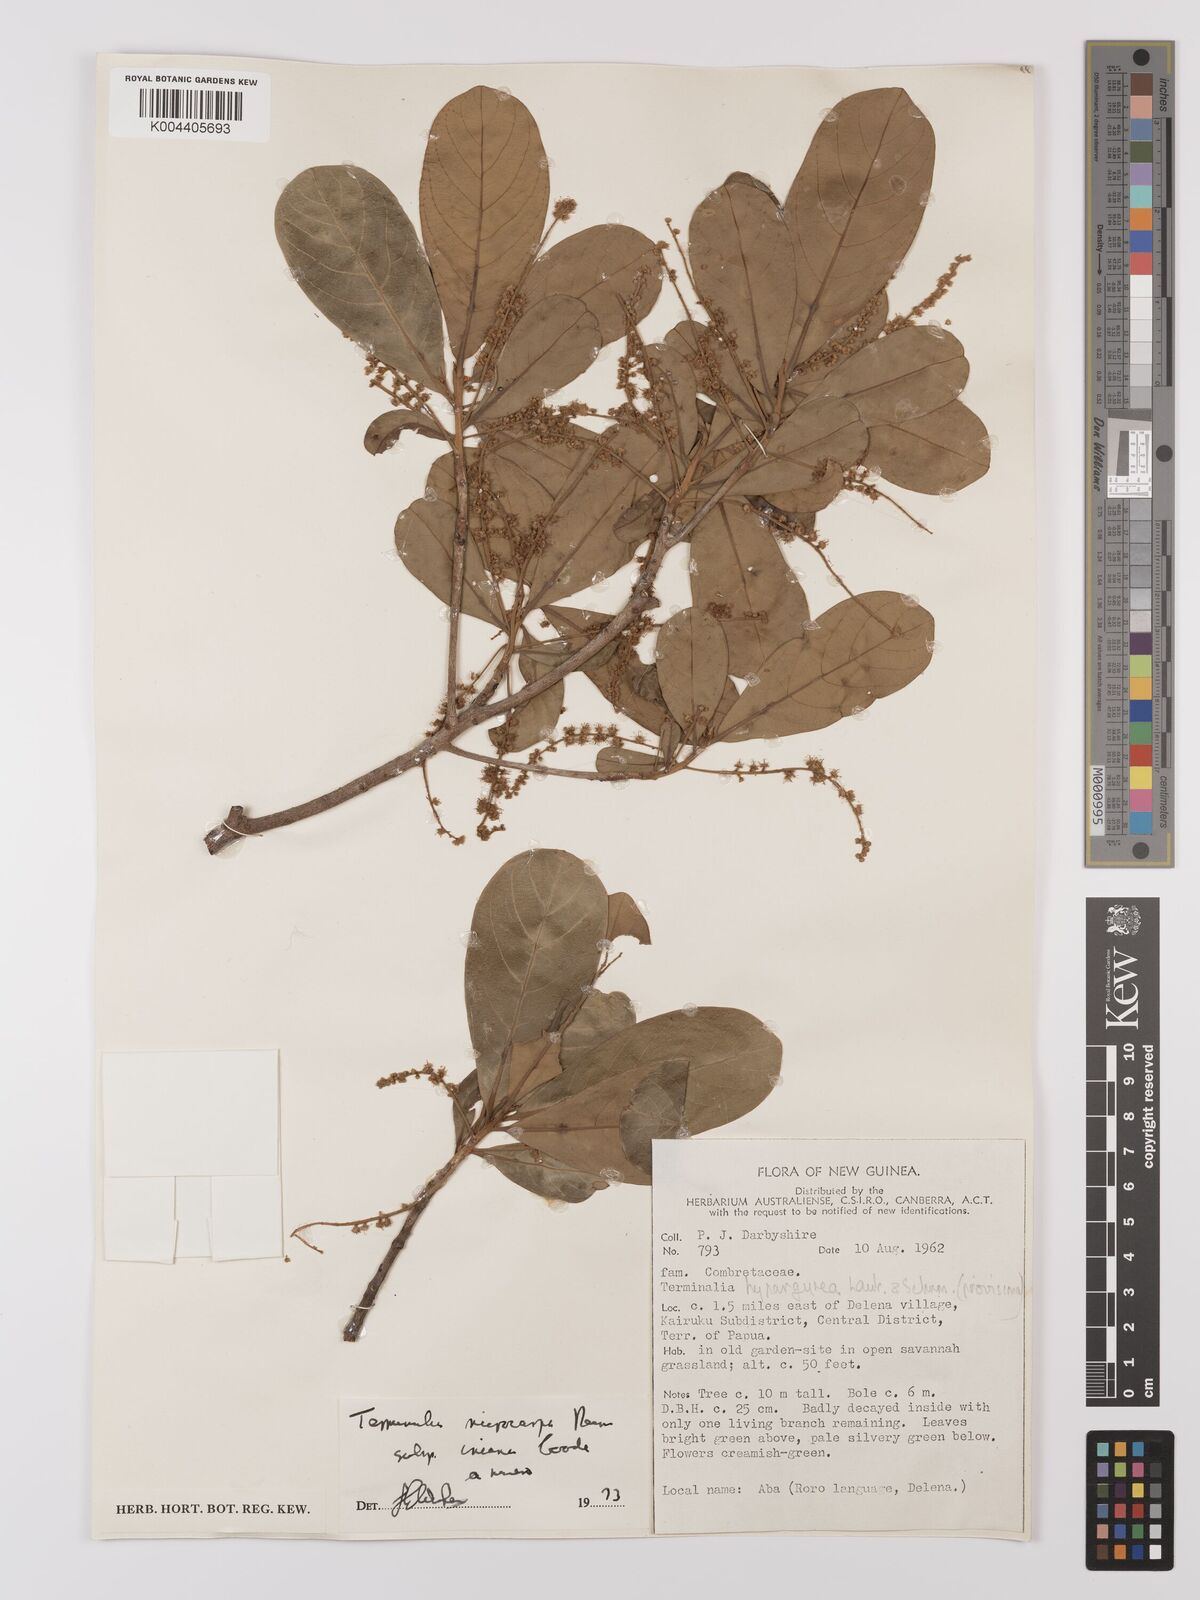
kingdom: Plantae
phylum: Tracheophyta
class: Magnoliopsida
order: Myrtales
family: Combretaceae
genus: Terminalia
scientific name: Terminalia microcarpa
